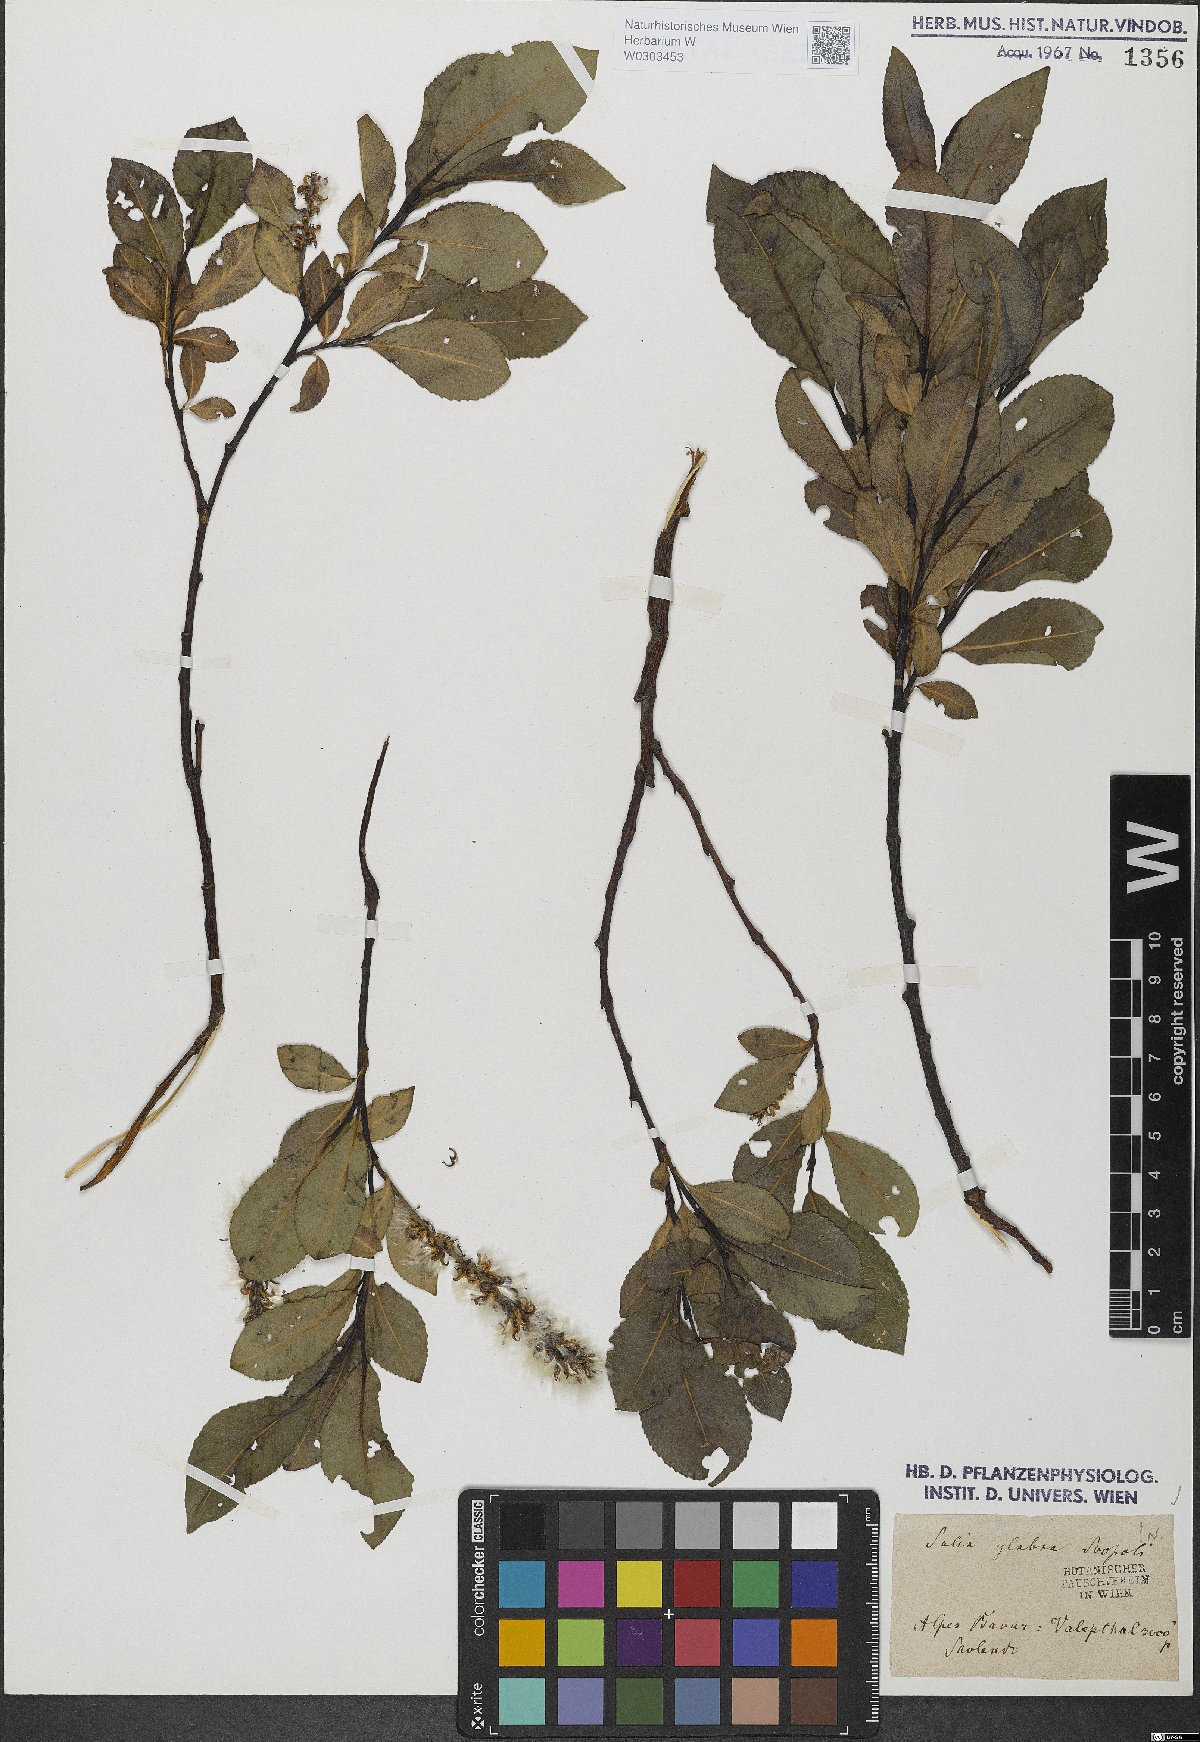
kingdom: Plantae
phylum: Tracheophyta
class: Magnoliopsida
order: Malpighiales
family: Salicaceae
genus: Salix
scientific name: Salix glabra
